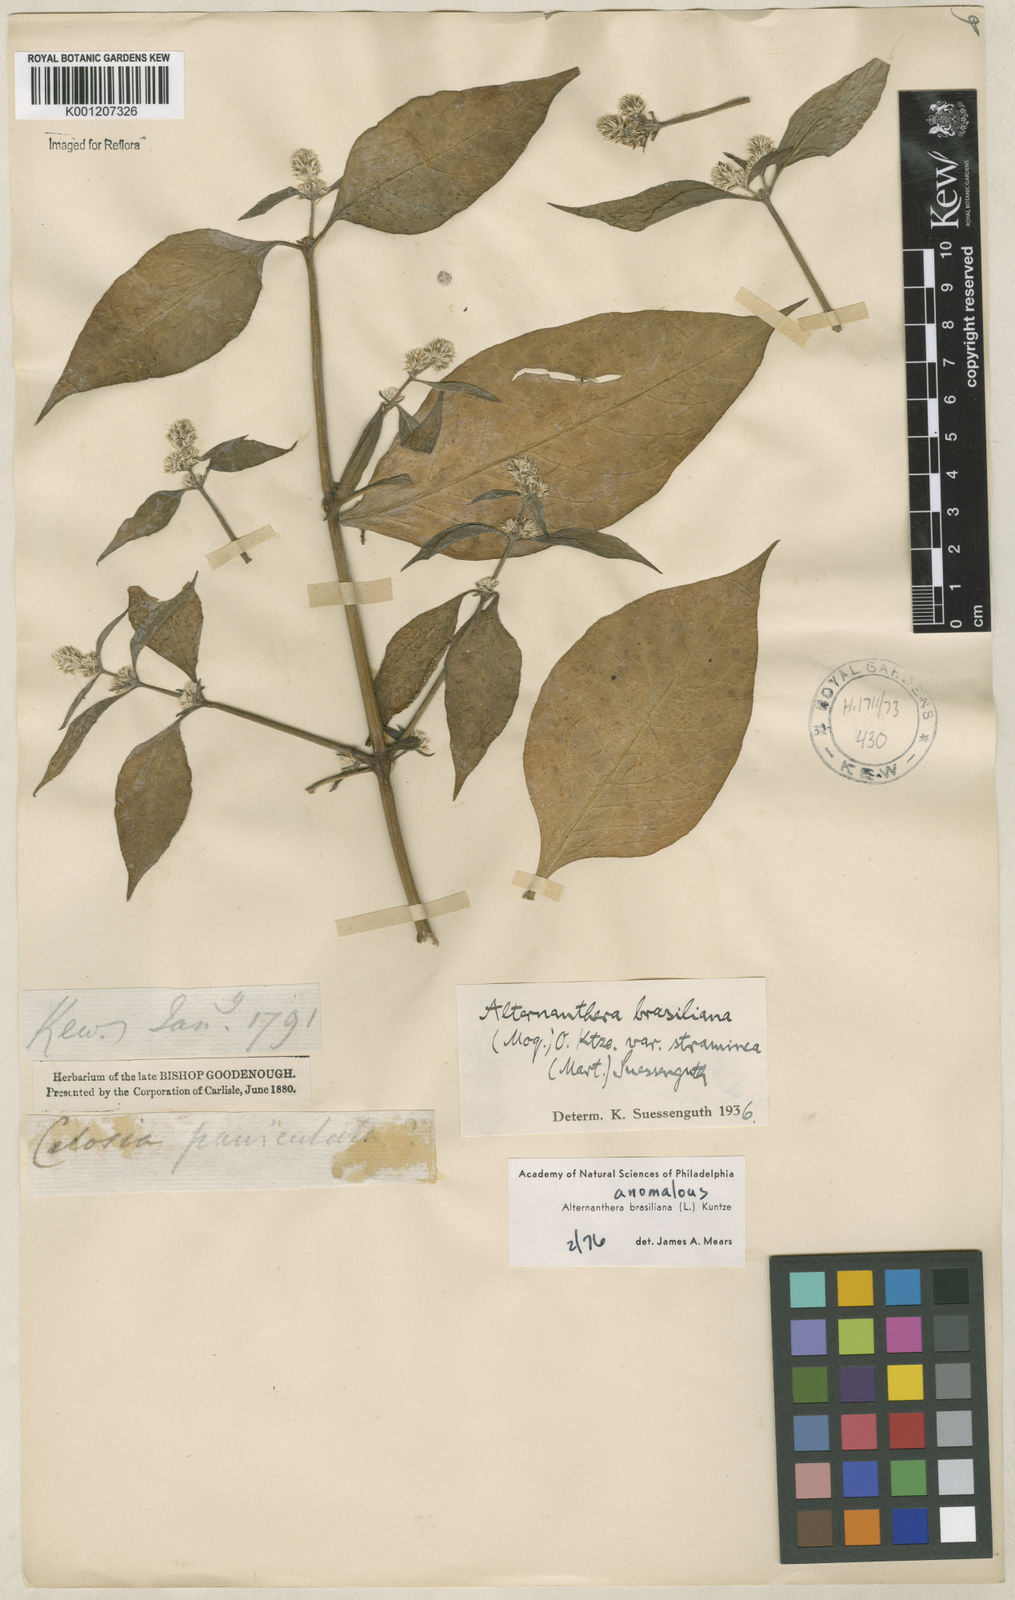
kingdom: Plantae
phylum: Tracheophyta
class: Magnoliopsida
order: Caryophyllales
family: Amaranthaceae
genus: Alternanthera
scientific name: Alternanthera brasiliana
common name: Brazilian joyweed
